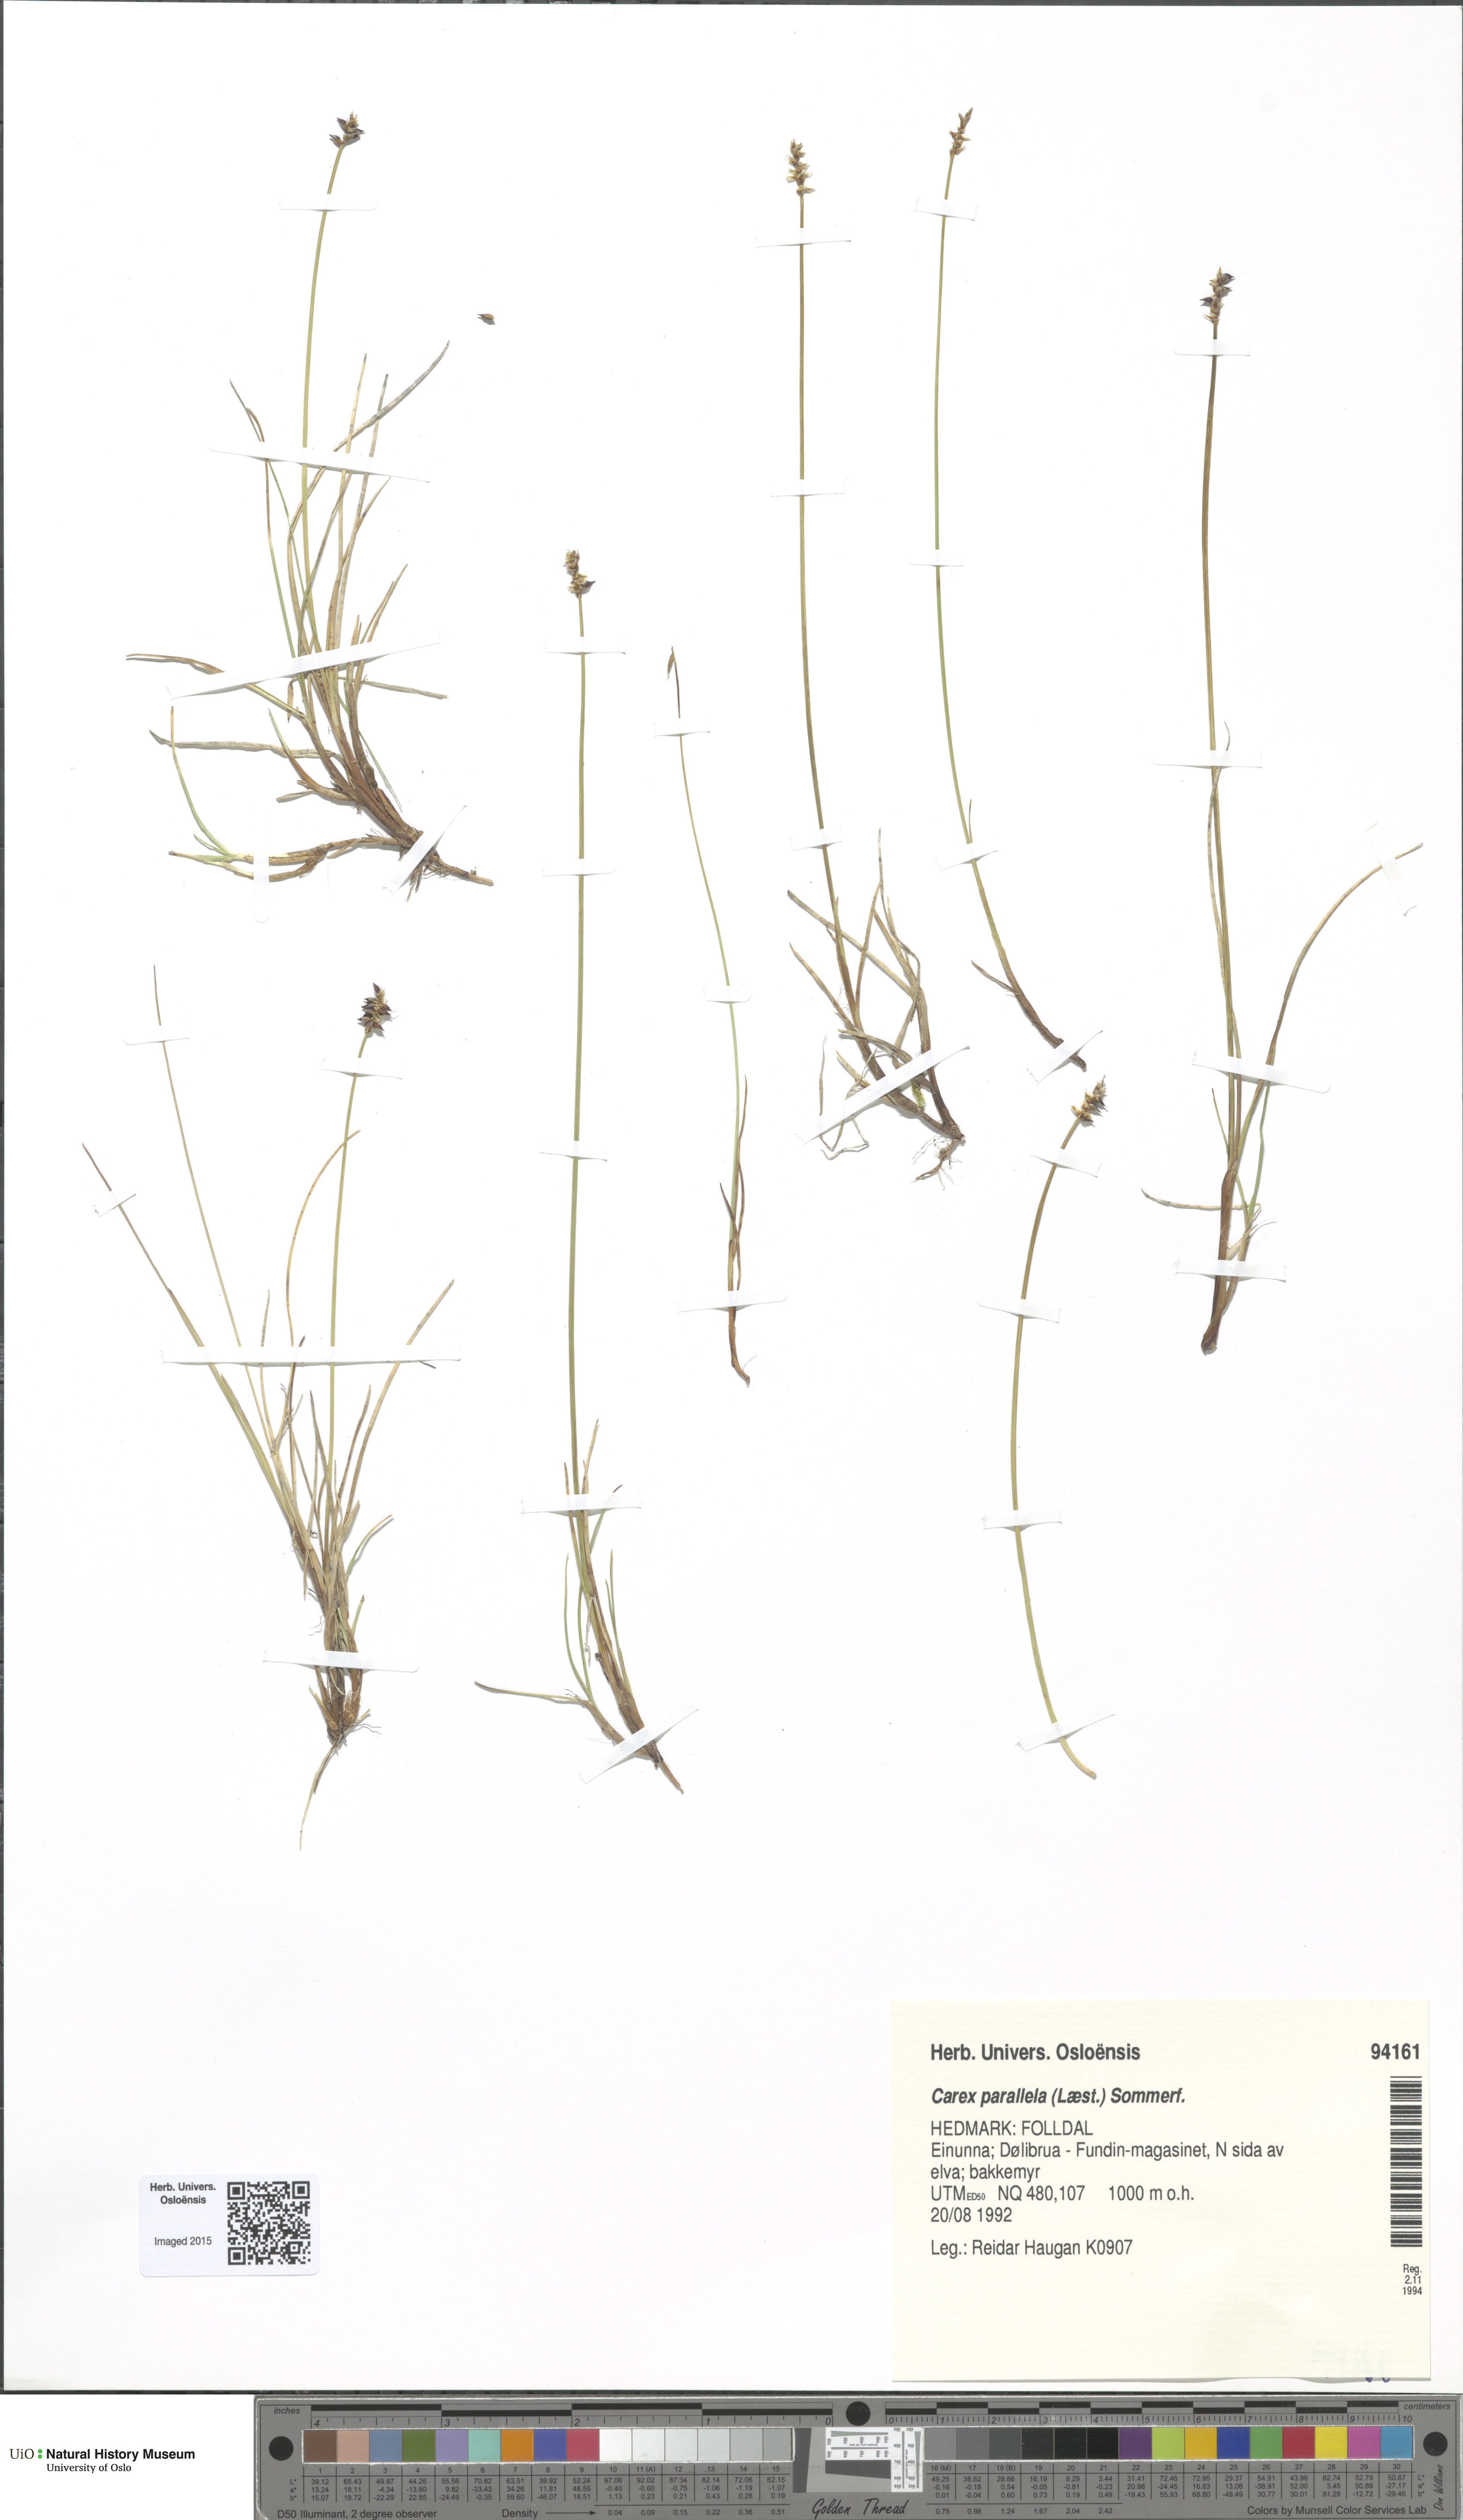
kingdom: Plantae
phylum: Tracheophyta
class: Liliopsida
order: Poales
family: Cyperaceae
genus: Carex
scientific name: Carex parallela
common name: Parallel sedge
